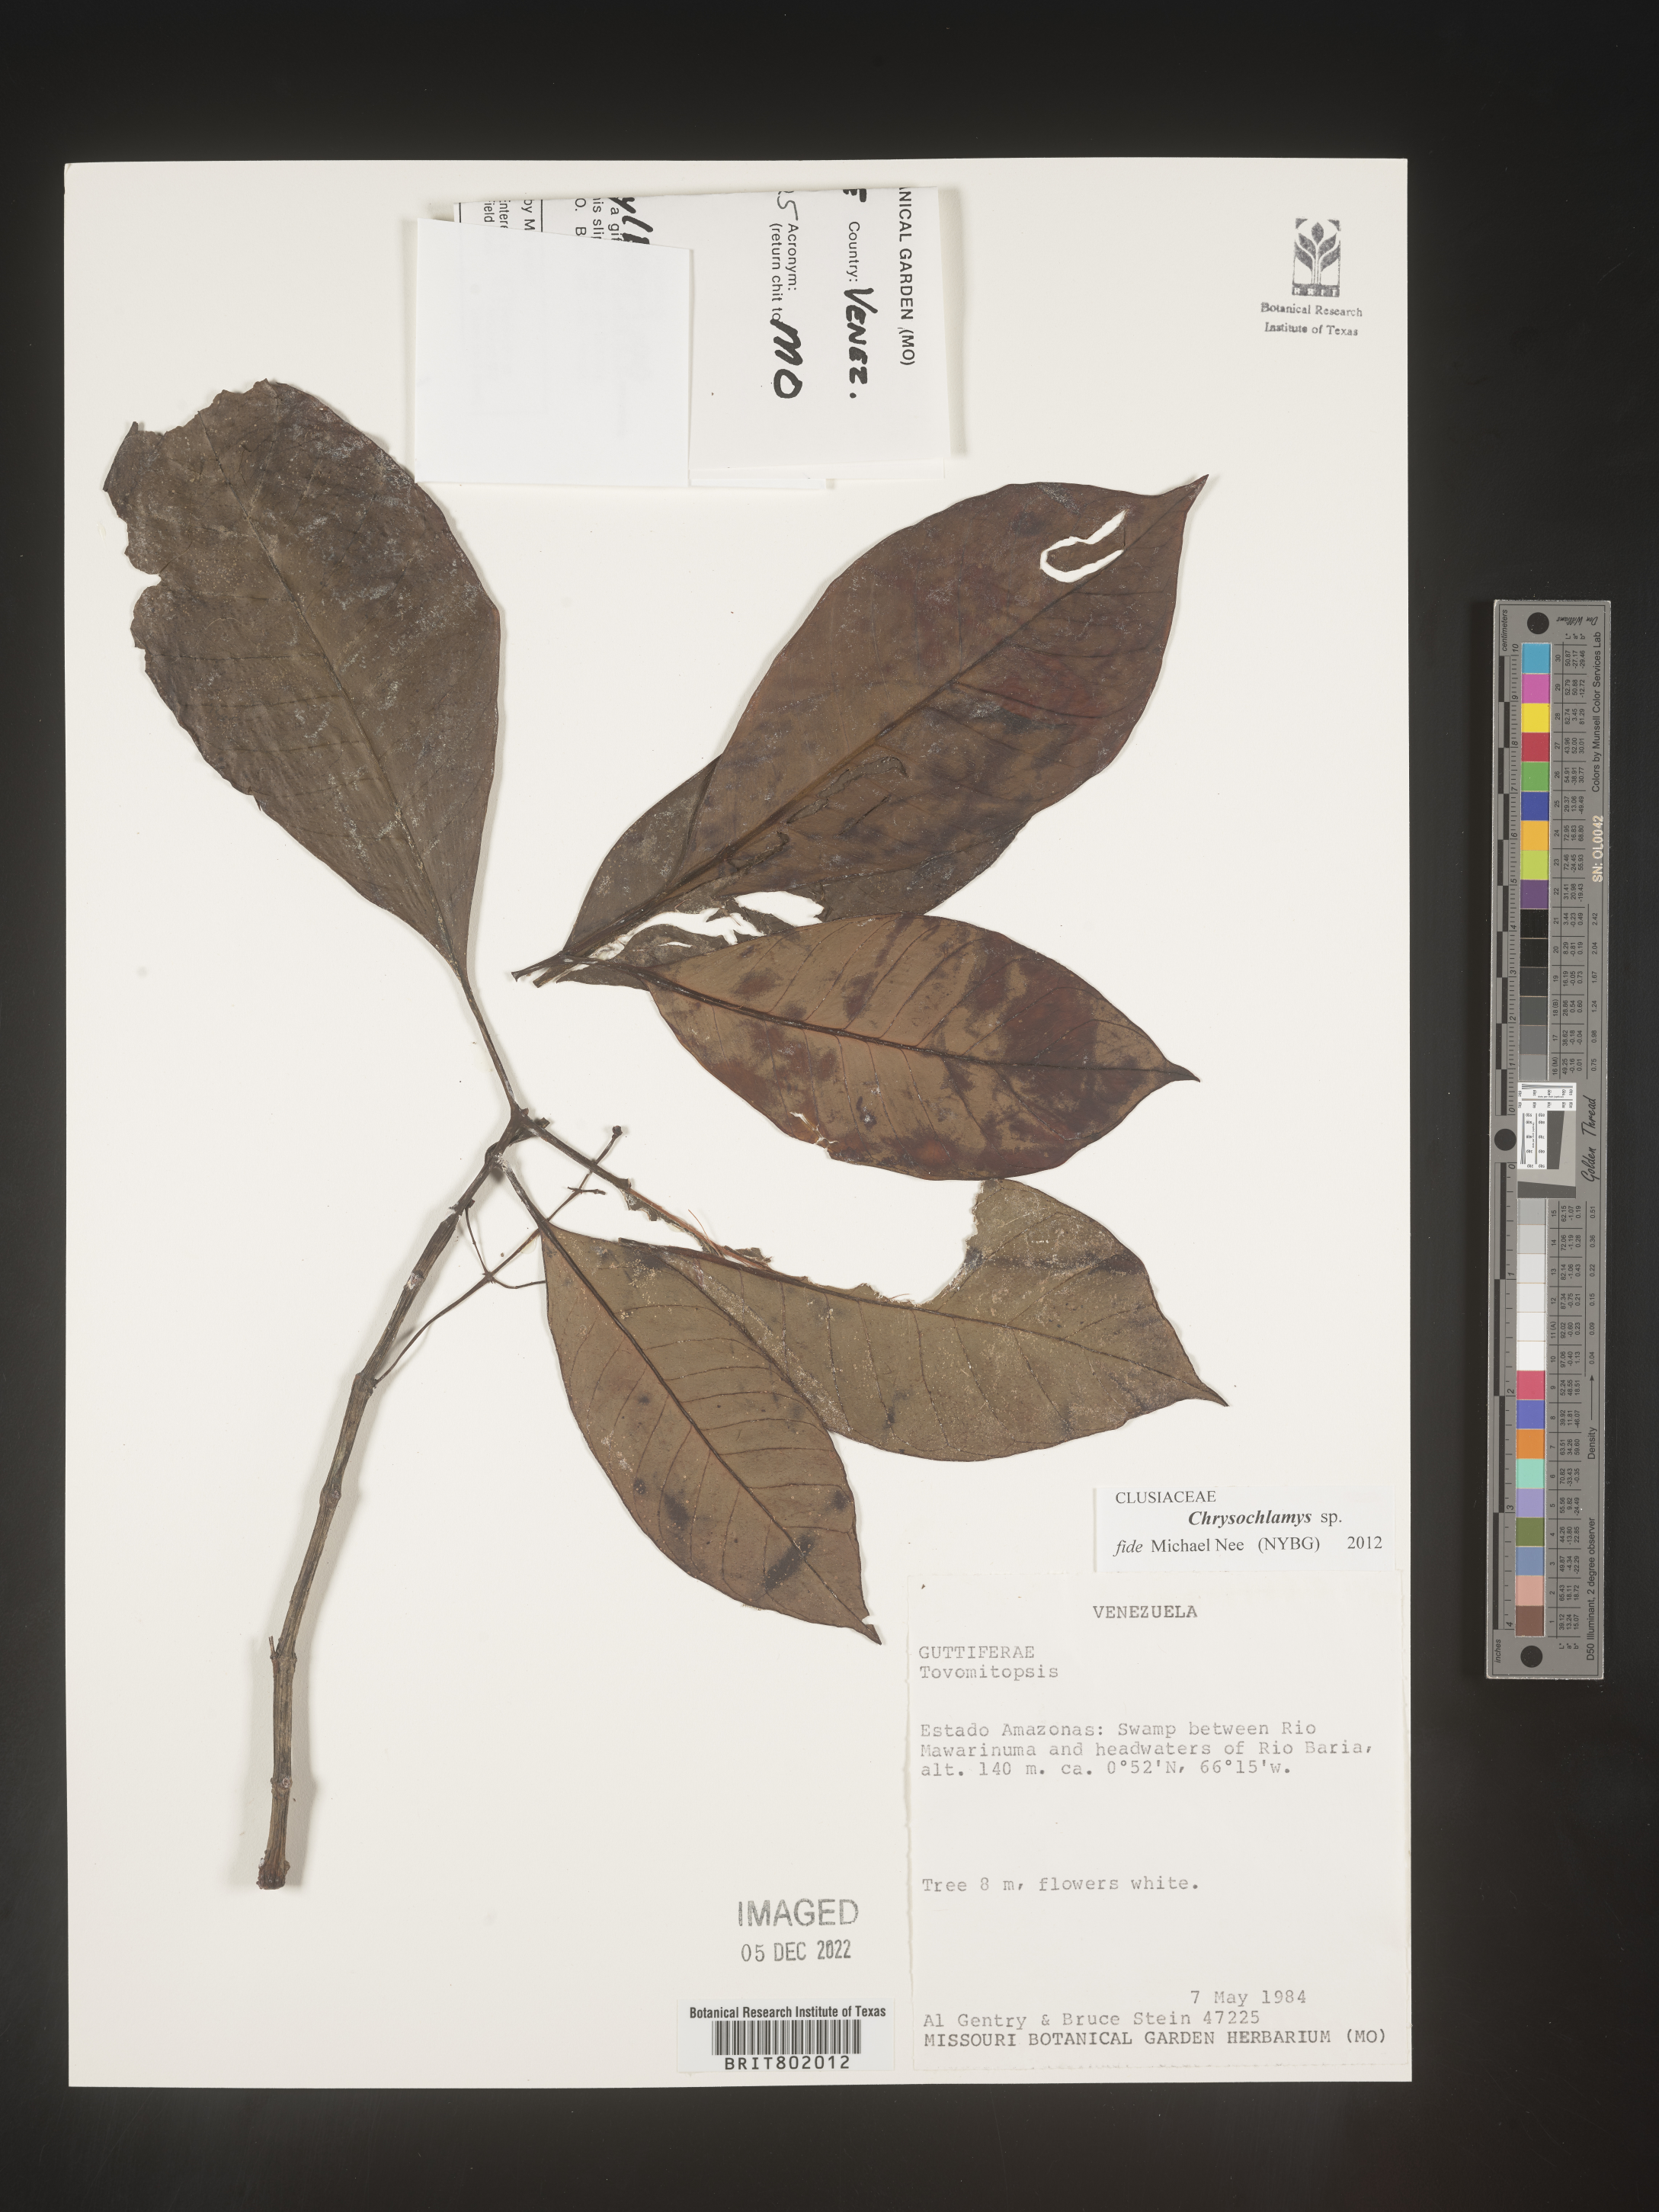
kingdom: Plantae
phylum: Tracheophyta
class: Magnoliopsida
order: Malpighiales
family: Clusiaceae
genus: Chrysochlamys
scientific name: Chrysochlamys
